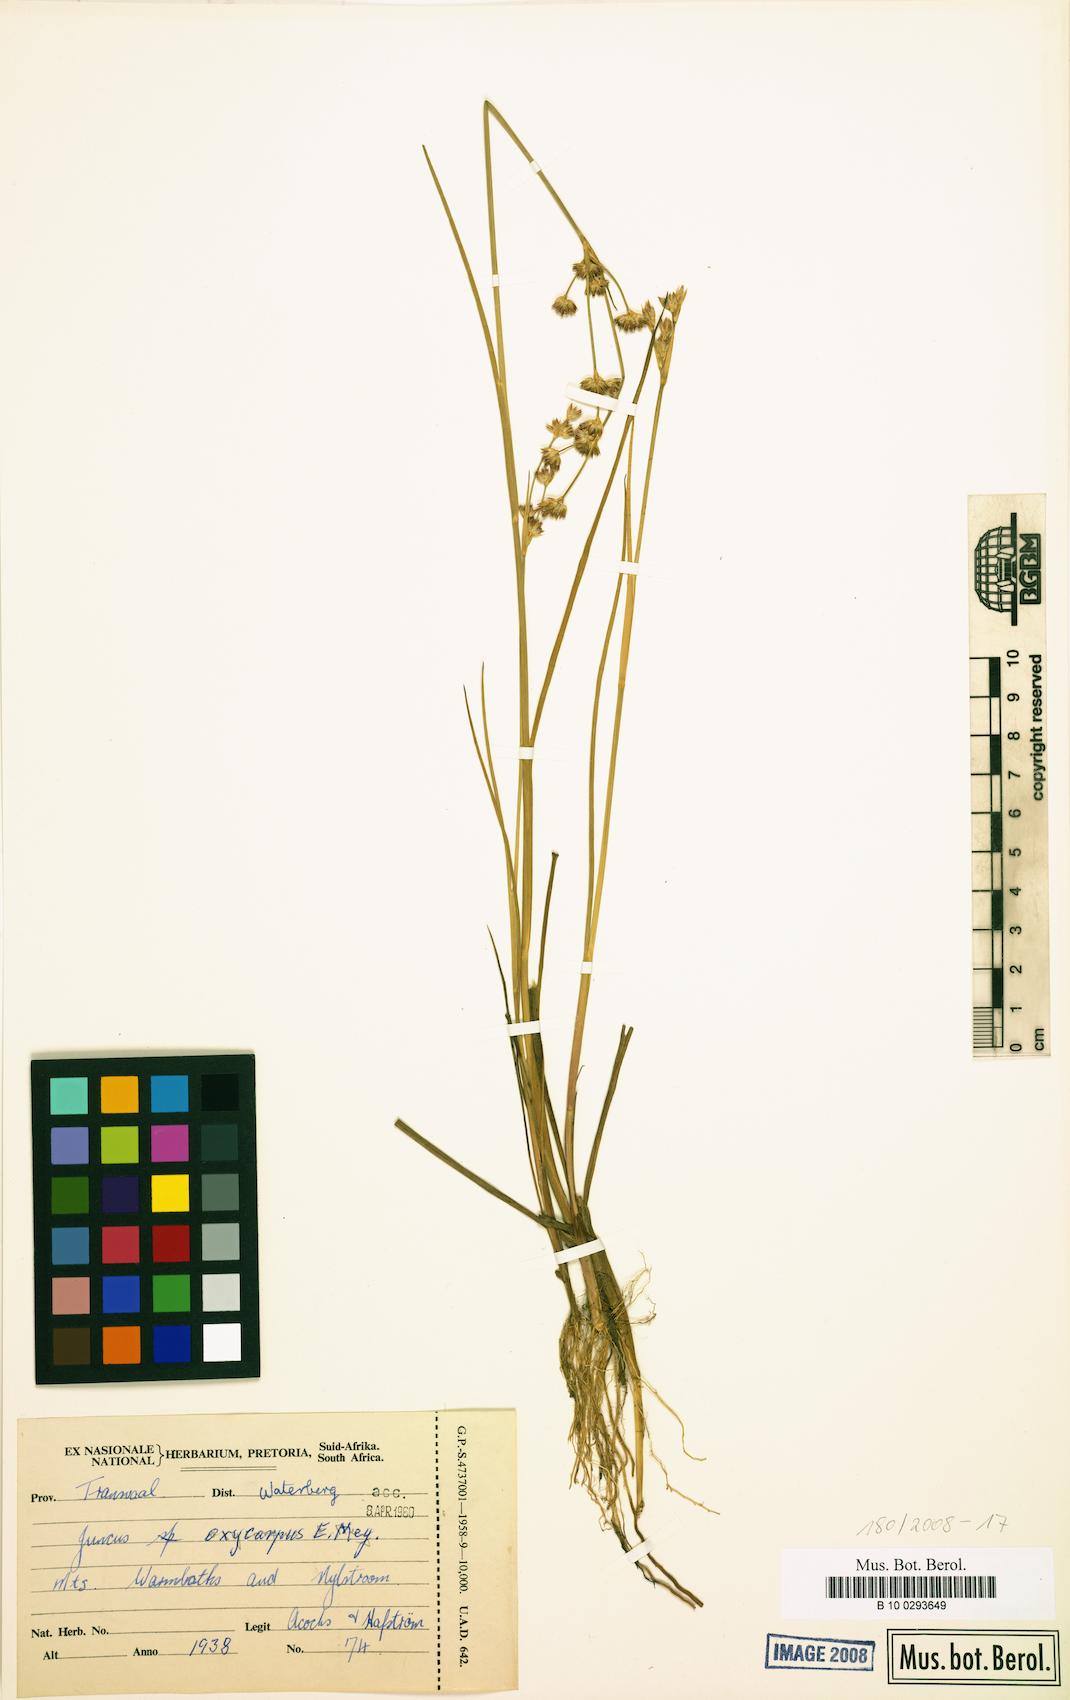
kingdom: Plantae
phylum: Tracheophyta
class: Liliopsida
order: Poales
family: Juncaceae
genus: Juncus
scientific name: Juncus oxycarpus
